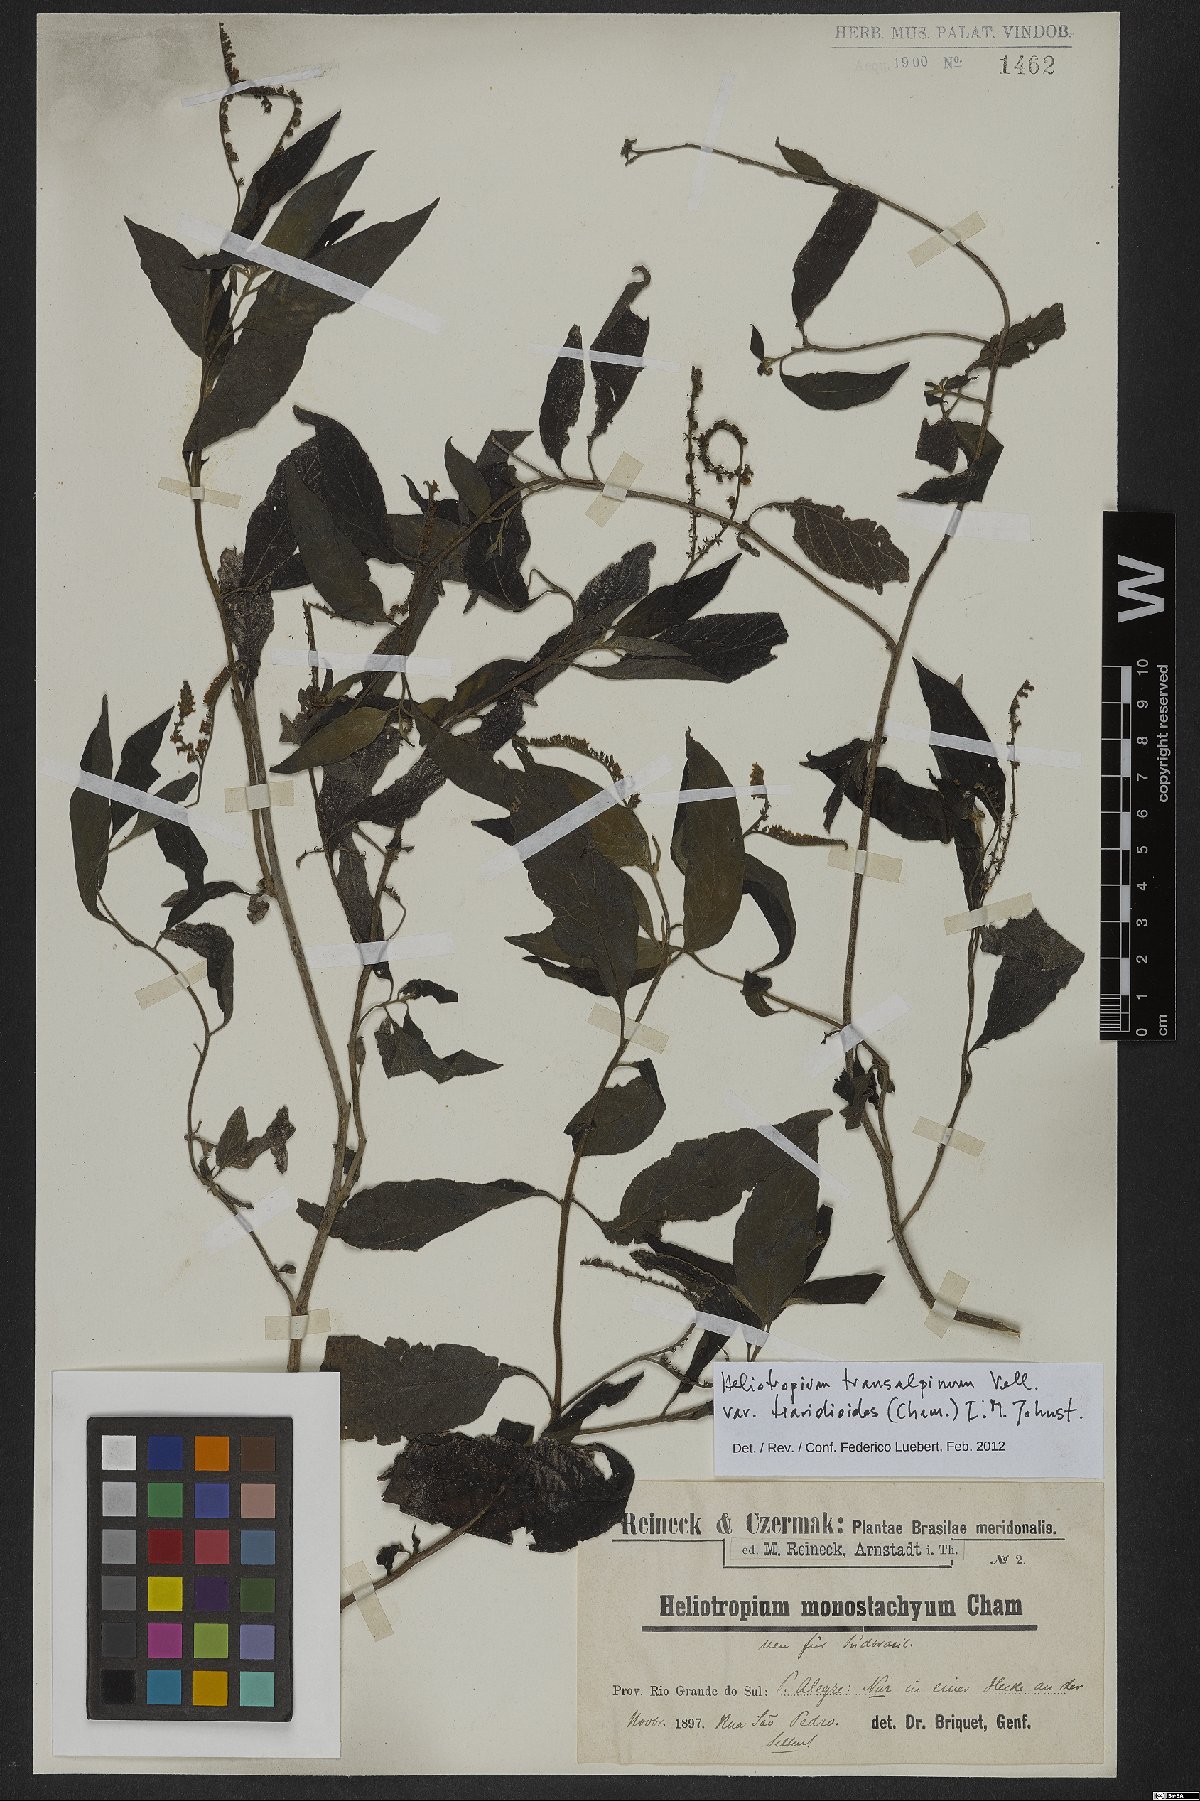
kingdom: Plantae
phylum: Tracheophyta
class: Magnoliopsida
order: Boraginales
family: Heliotropiaceae
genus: Heliotropium
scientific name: Heliotropium tiaridioides
